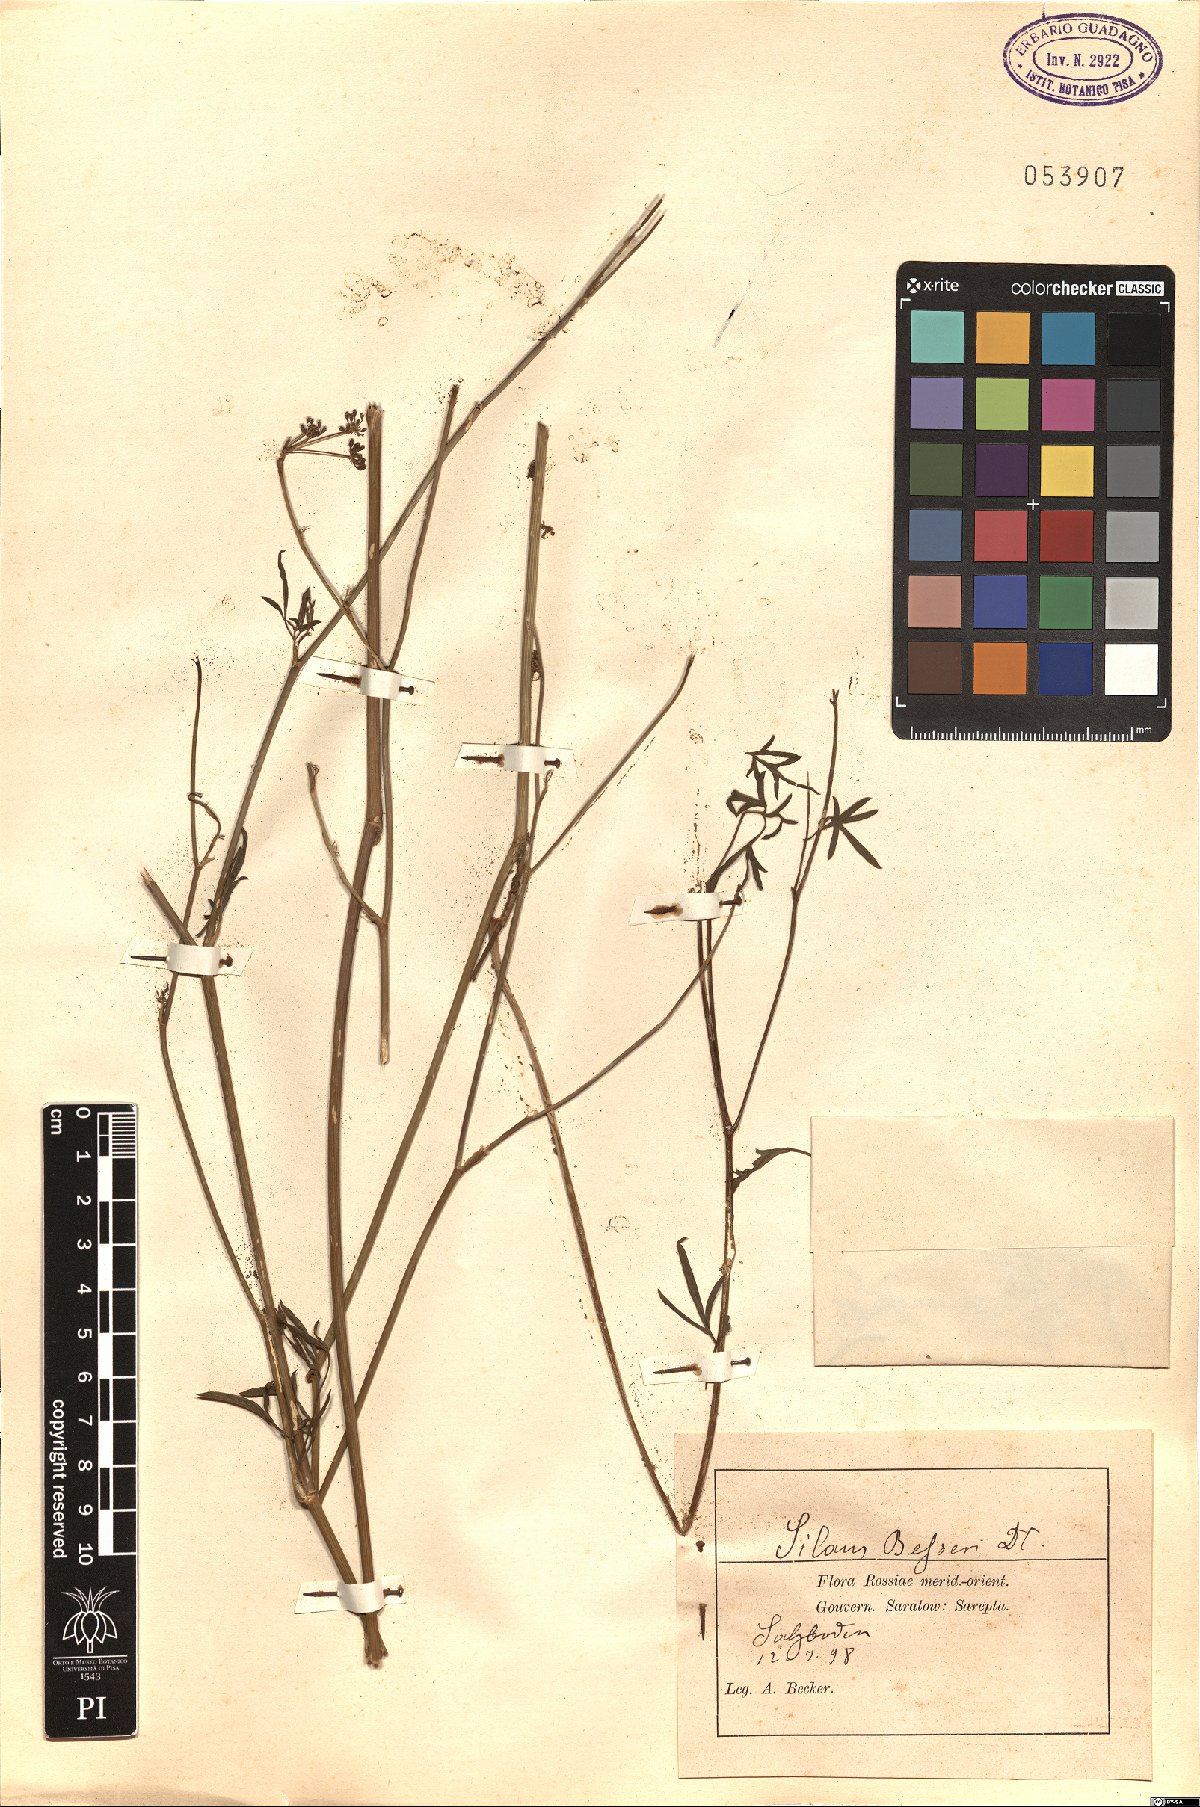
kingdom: Plantae
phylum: Tracheophyta
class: Magnoliopsida
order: Apiales
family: Apiaceae
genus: Silaum
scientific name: Silaum silaus
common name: Pepper-saxifrage
